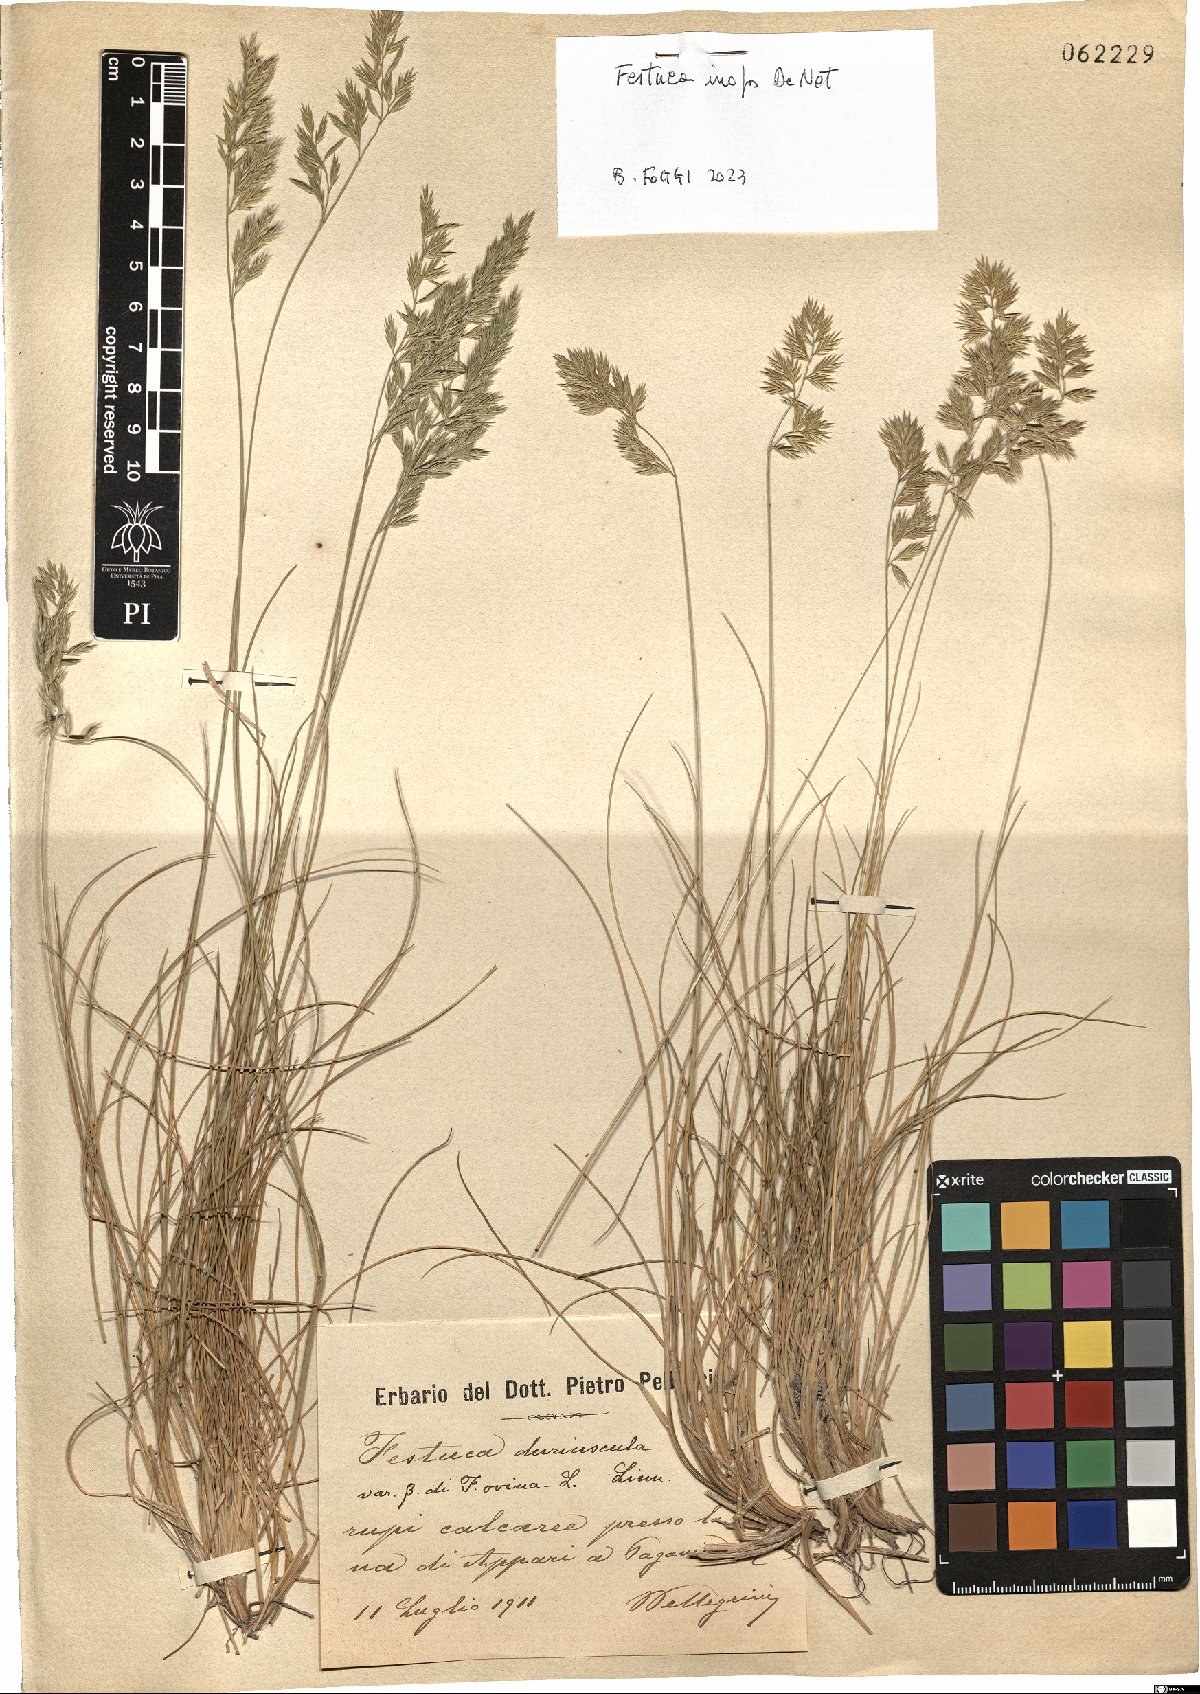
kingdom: Plantae
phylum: Tracheophyta
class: Liliopsida
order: Poales
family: Poaceae
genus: Festuca
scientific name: Festuca inops
